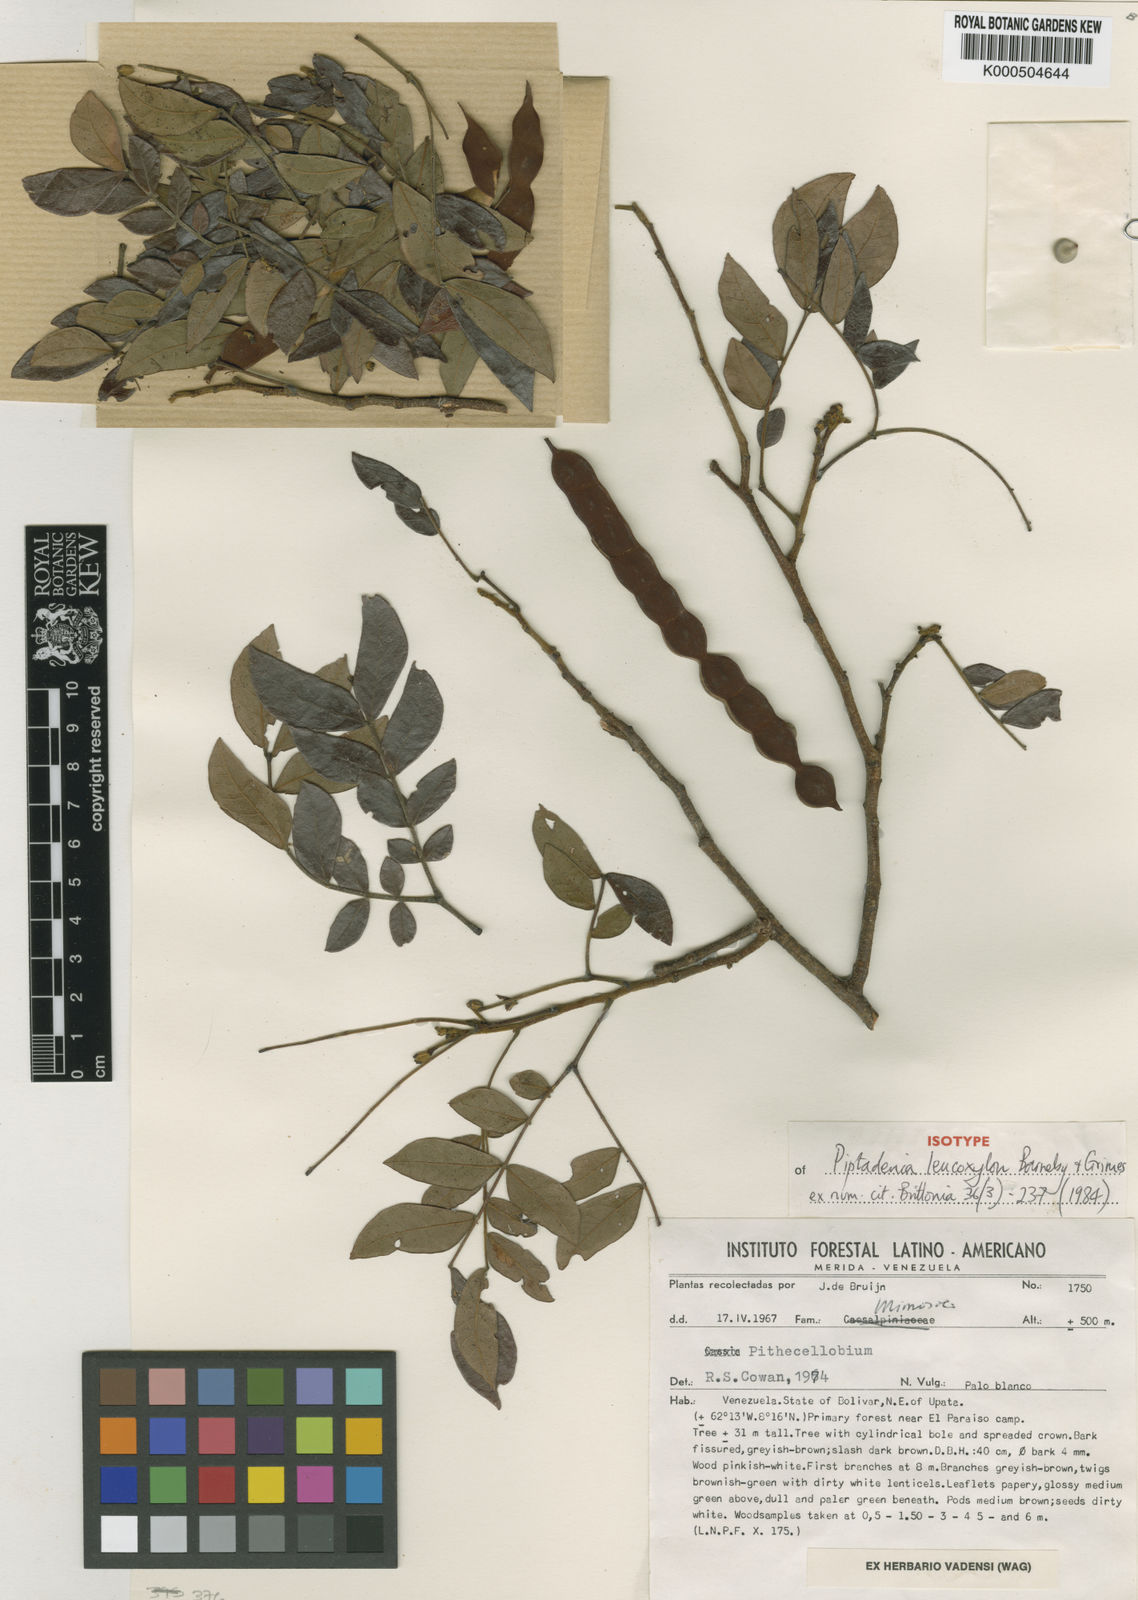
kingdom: Plantae
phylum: Tracheophyta
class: Magnoliopsida
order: Fabales
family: Fabaceae
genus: Pityrocarpa
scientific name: Pityrocarpa
